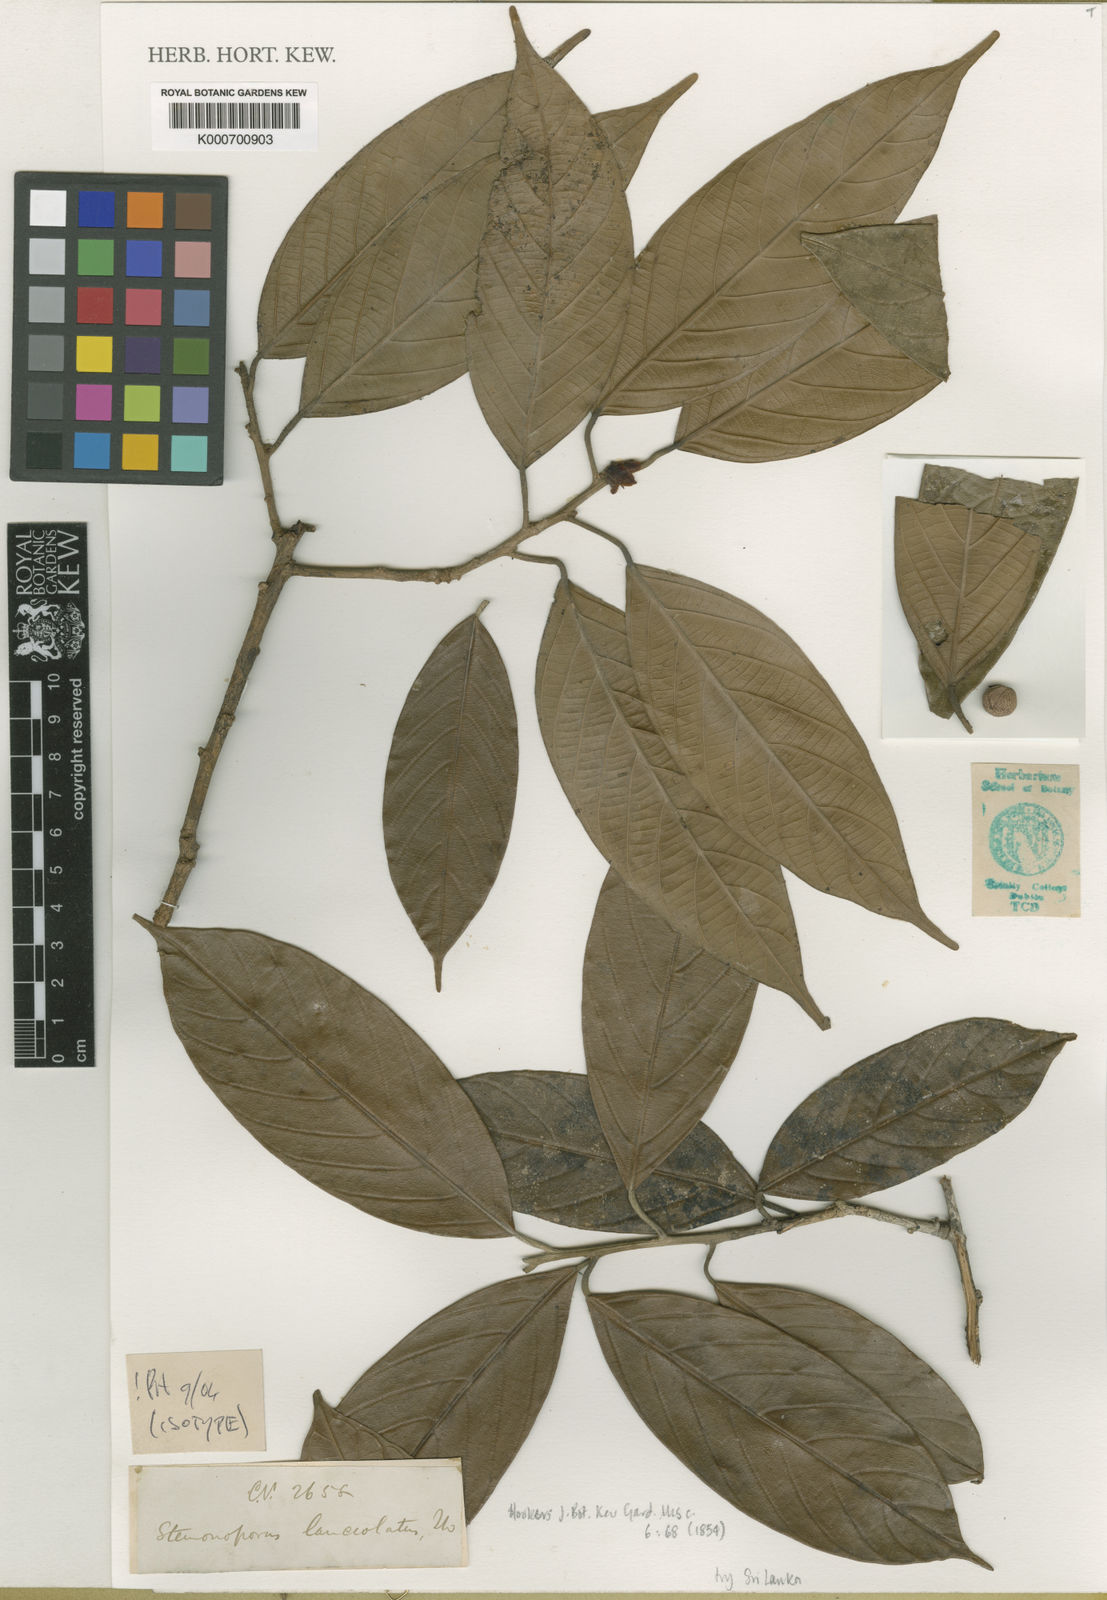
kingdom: Plantae
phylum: Tracheophyta
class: Magnoliopsida
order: Malvales
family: Dipterocarpaceae
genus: Stemonoporus
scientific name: Stemonoporus lanceolatus
